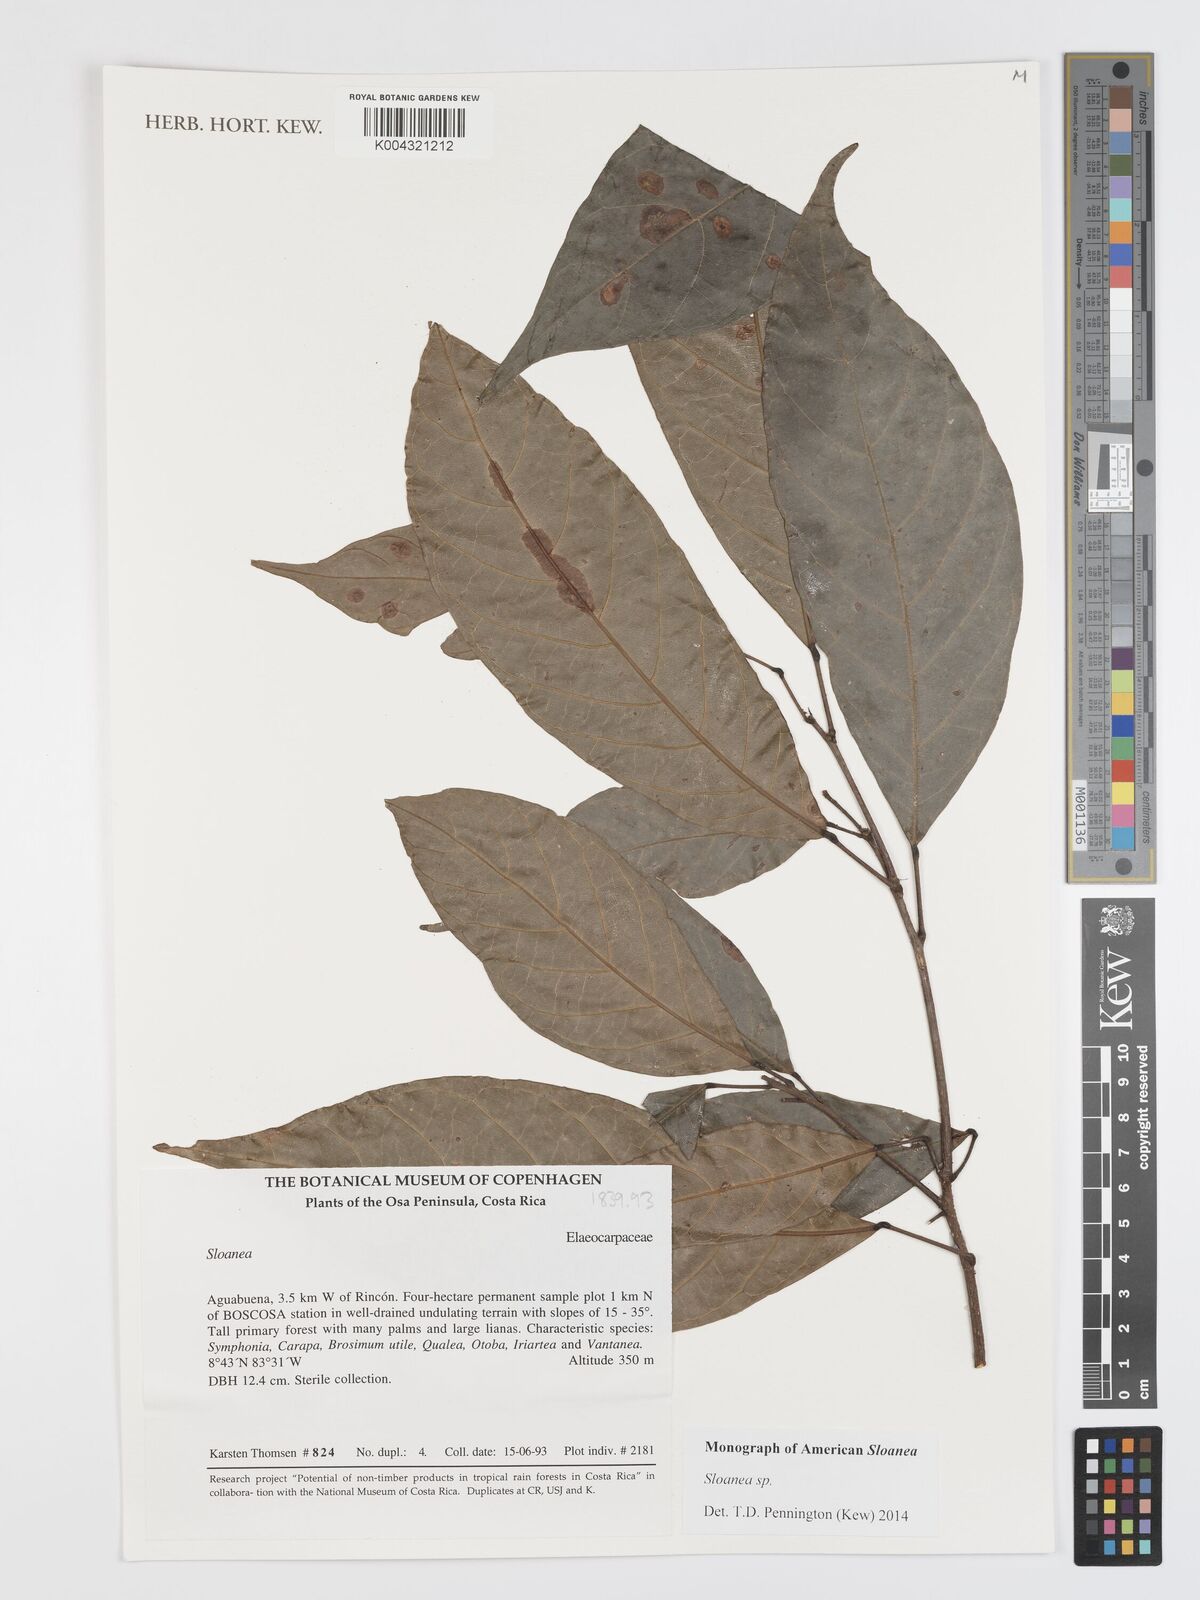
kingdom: Plantae
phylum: Tracheophyta
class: Magnoliopsida
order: Oxalidales
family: Elaeocarpaceae
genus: Sloanea
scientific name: Sloanea
